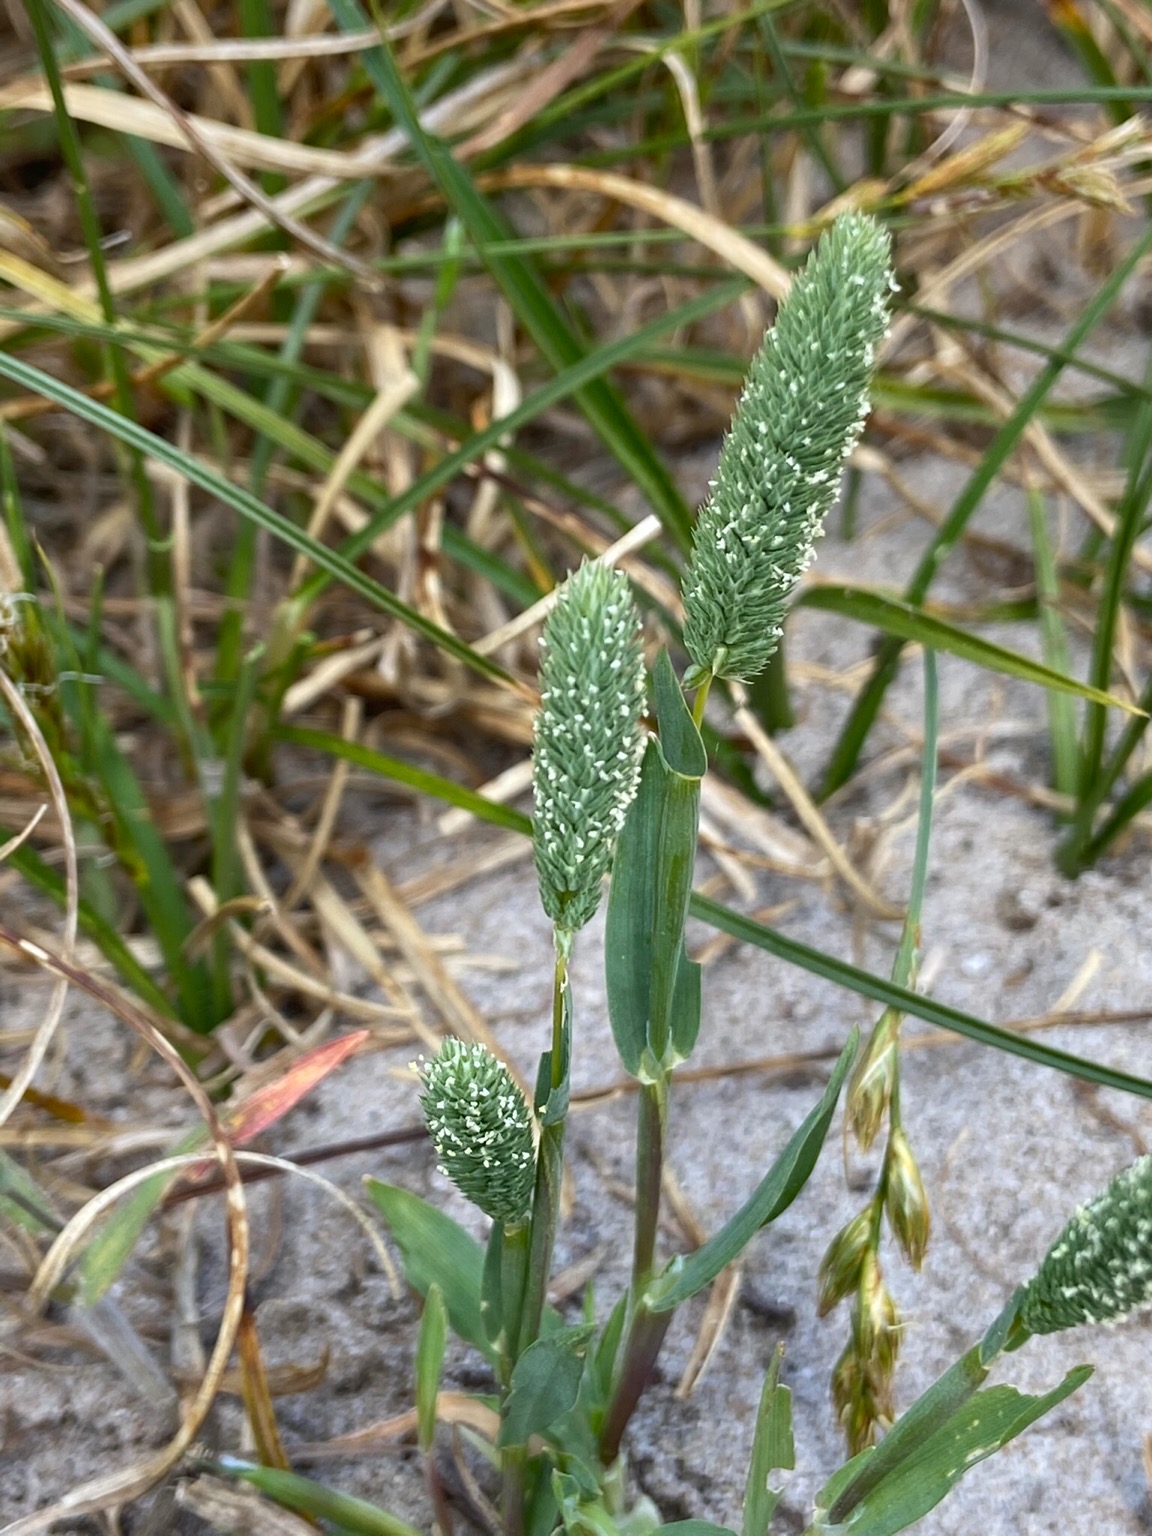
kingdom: Plantae
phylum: Tracheophyta
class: Liliopsida
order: Poales
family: Poaceae
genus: Phleum
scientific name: Phleum arenarium
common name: Sand-rottehale
